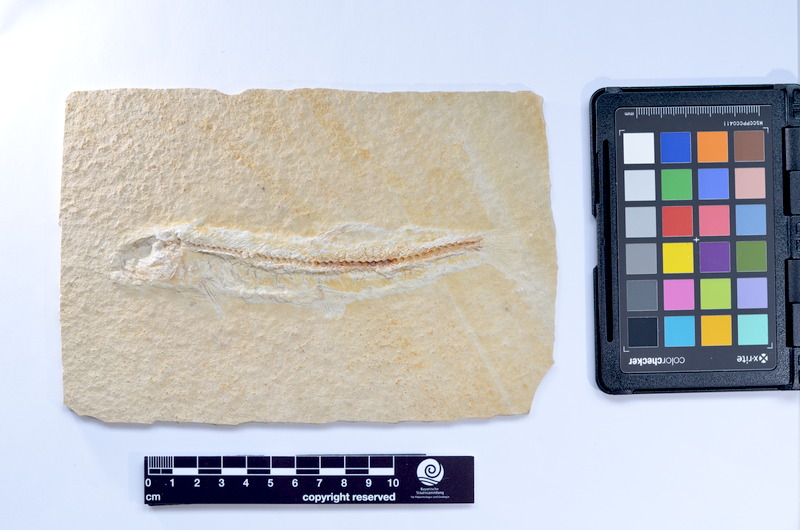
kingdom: Animalia
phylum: Chordata
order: Elopiformes
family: Anaethalionidae
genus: Anaethalion
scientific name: Anaethalion knorri
